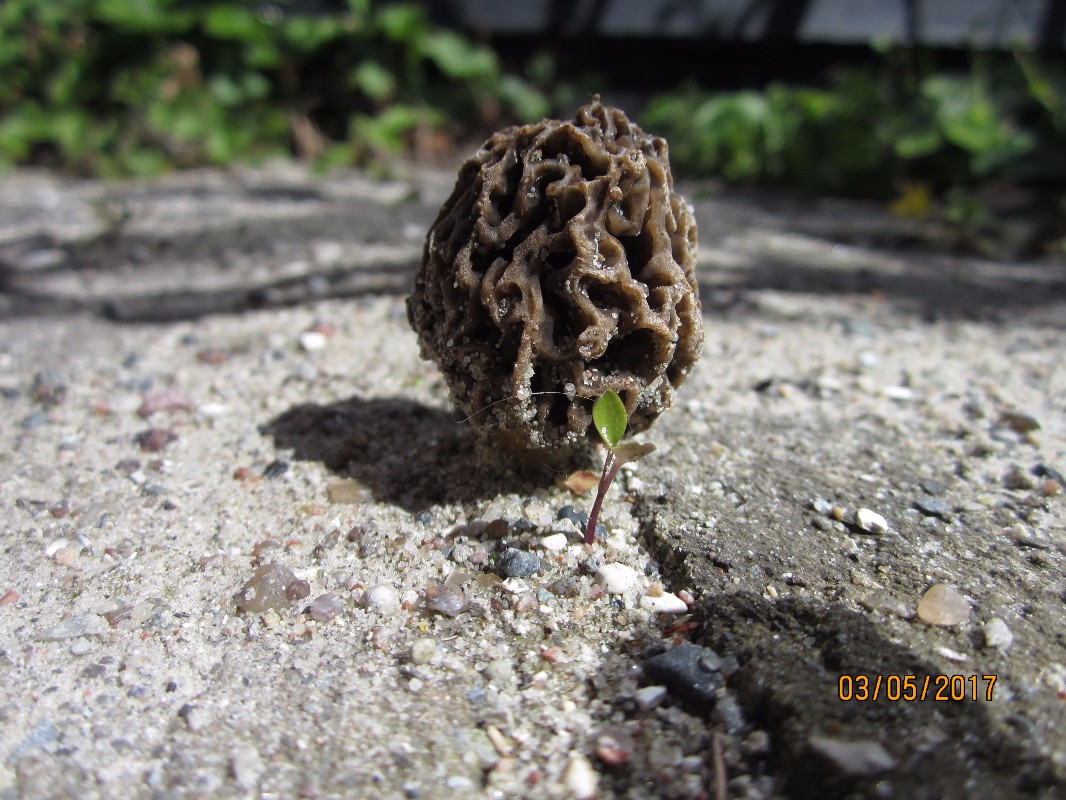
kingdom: Fungi
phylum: Ascomycota
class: Pezizomycetes
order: Pezizales
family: Morchellaceae
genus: Morchella
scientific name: Morchella esculenta
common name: almindelig morkel
